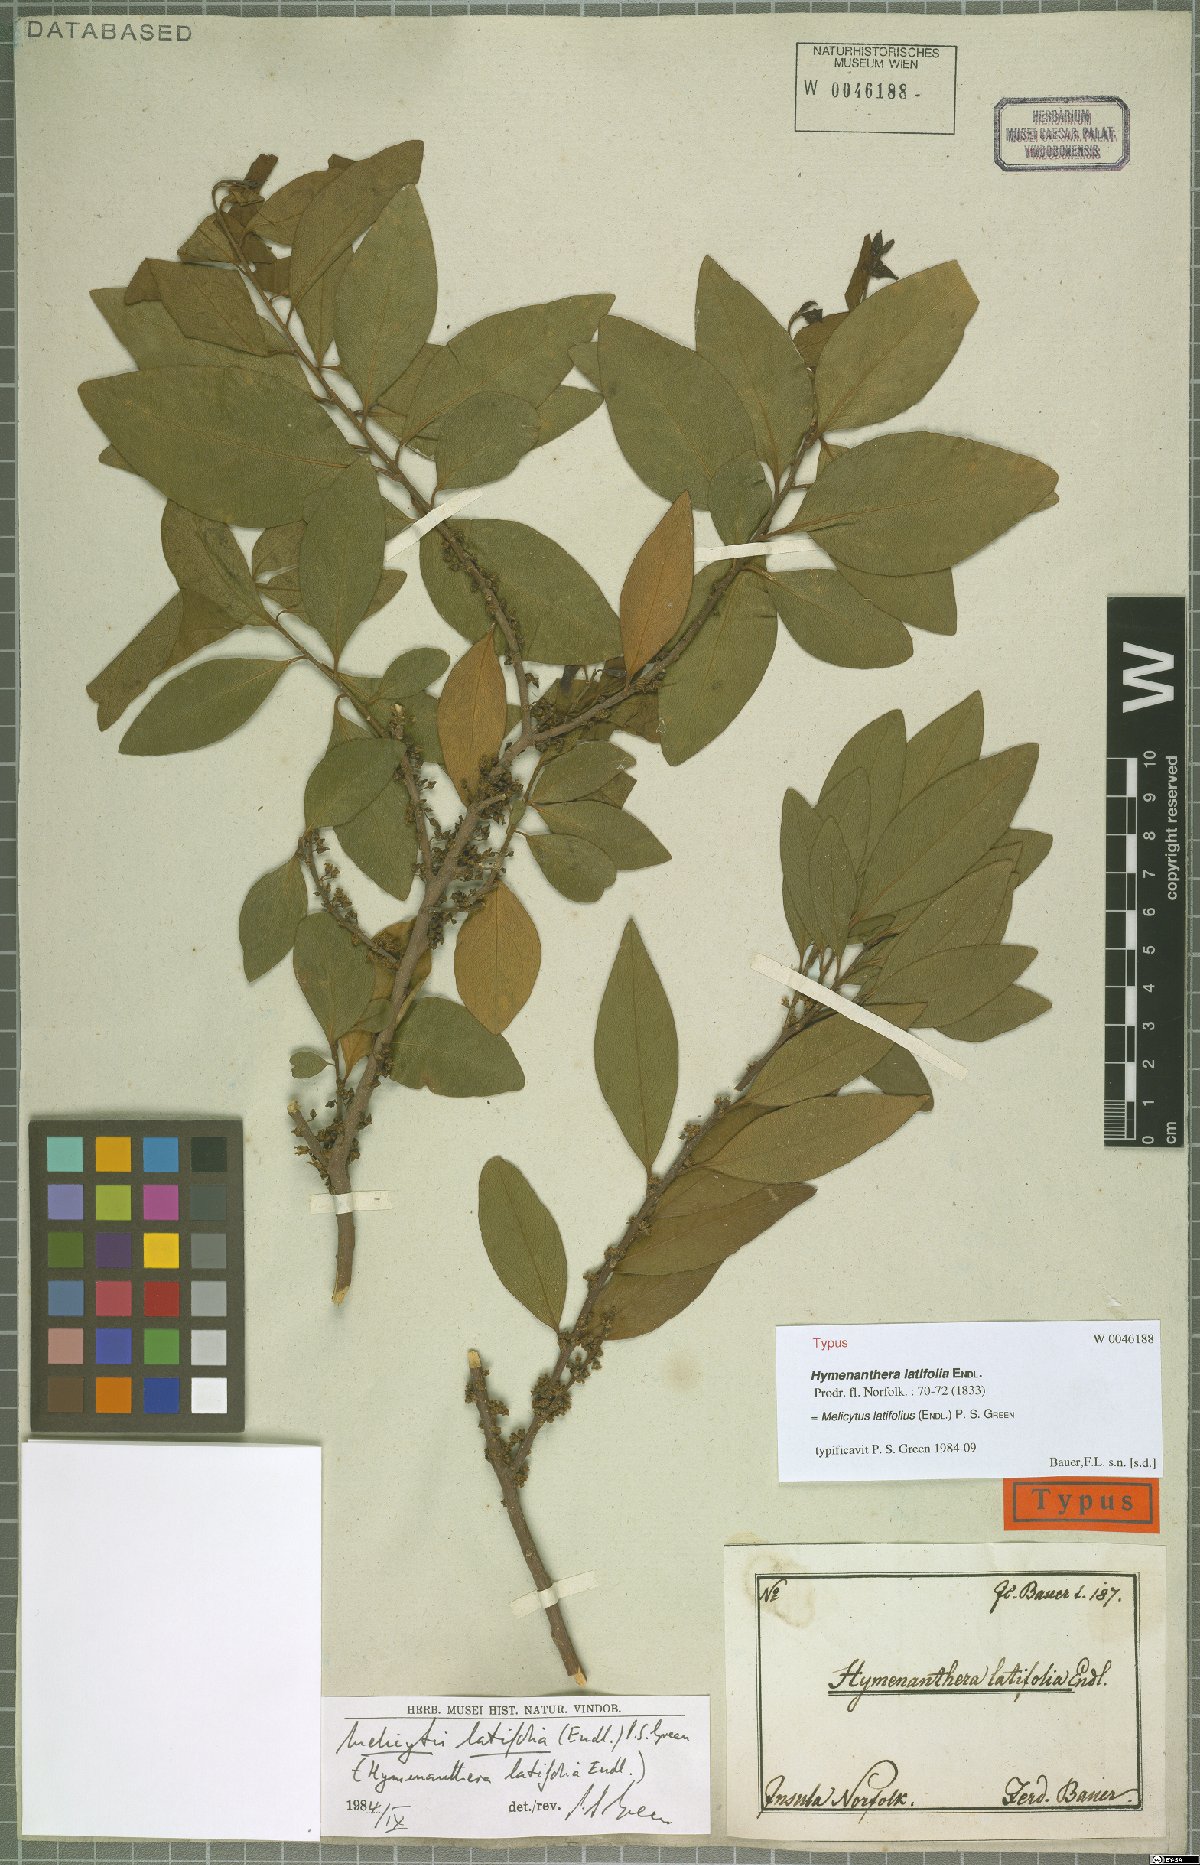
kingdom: Plantae
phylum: Tracheophyta
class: Magnoliopsida
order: Malpighiales
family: Violaceae
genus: Melicytus
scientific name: Melicytus latifolius
